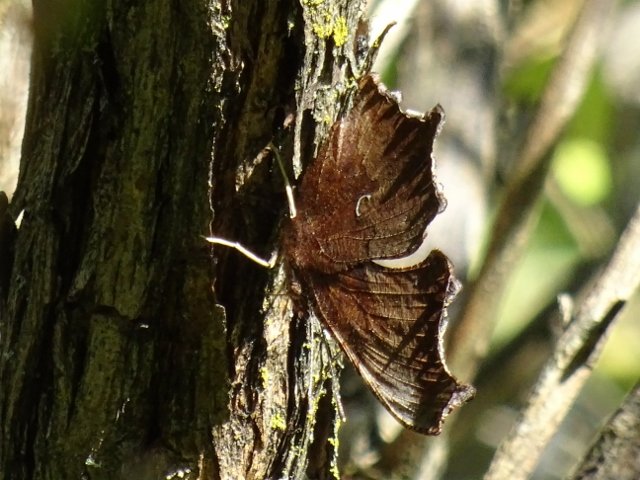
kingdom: Animalia
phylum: Arthropoda
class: Insecta
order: Lepidoptera
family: Nymphalidae
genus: Polygonia
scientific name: Polygonia comma
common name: Eastern Comma
